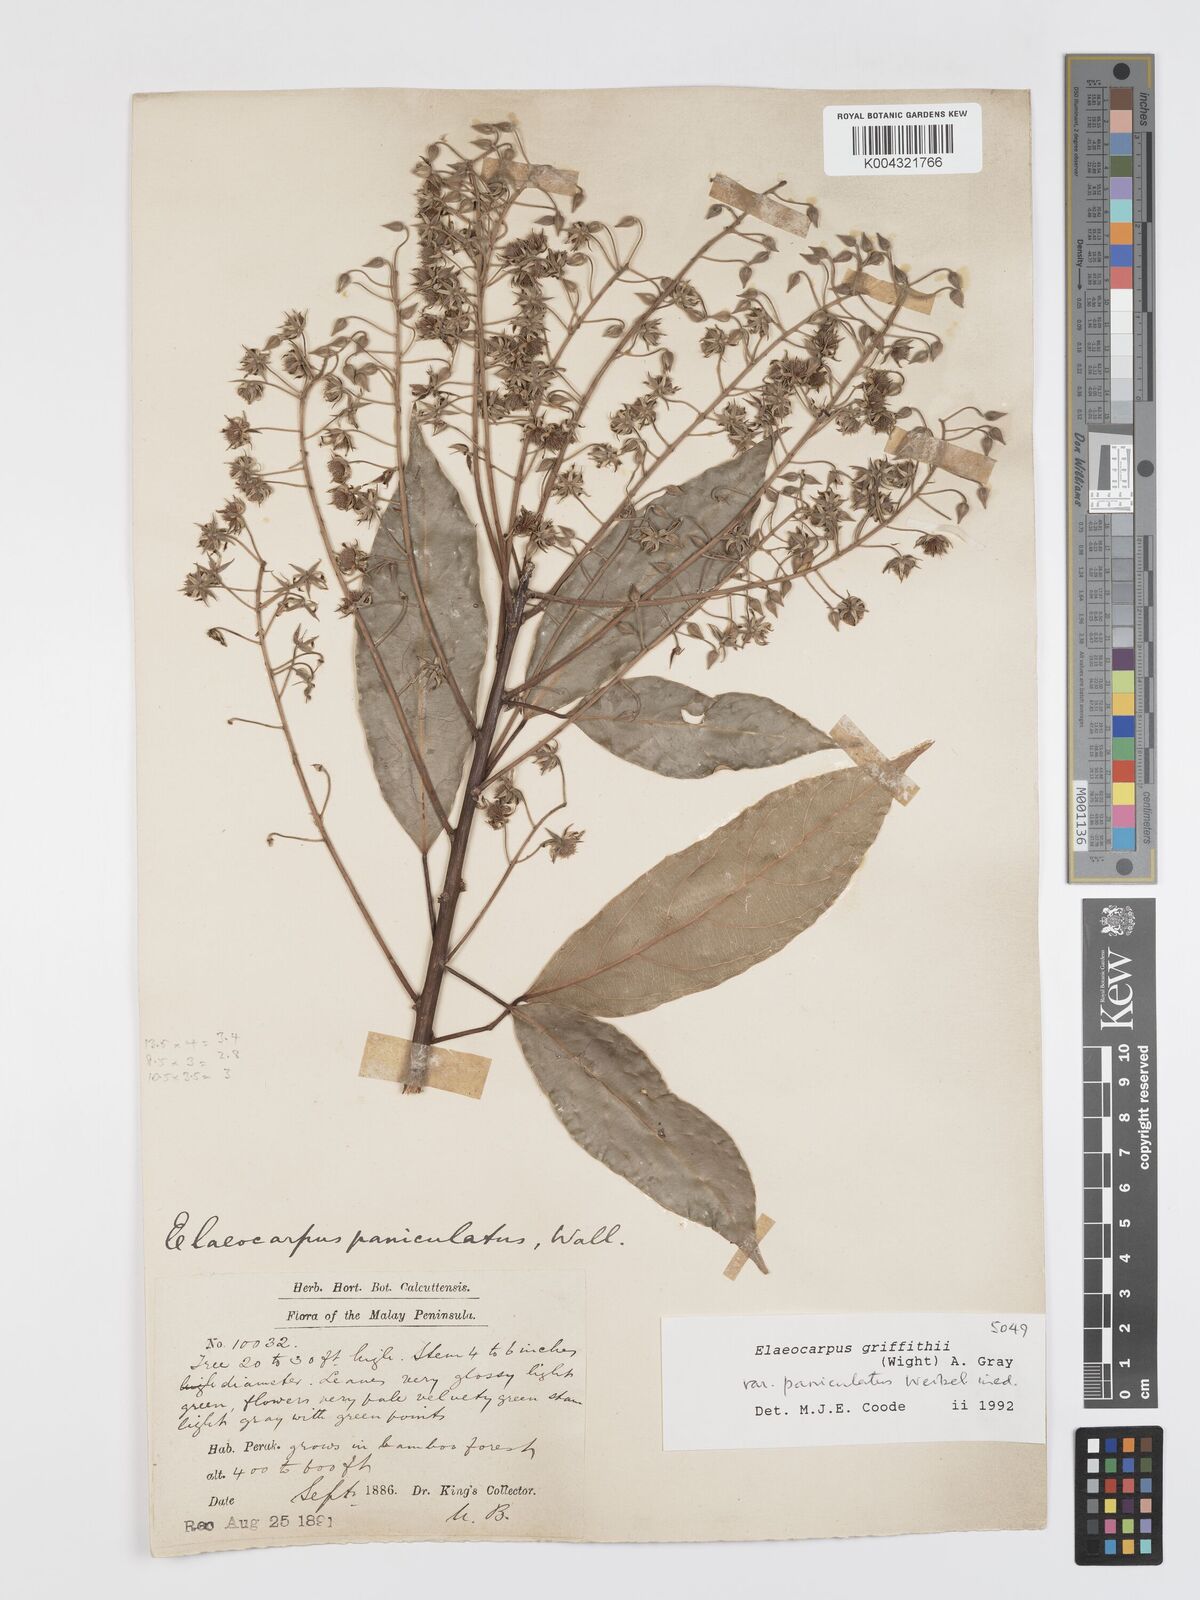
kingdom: Plantae
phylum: Tracheophyta
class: Magnoliopsida
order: Oxalidales
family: Elaeocarpaceae
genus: Elaeocarpus
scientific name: Elaeocarpus griffithii
